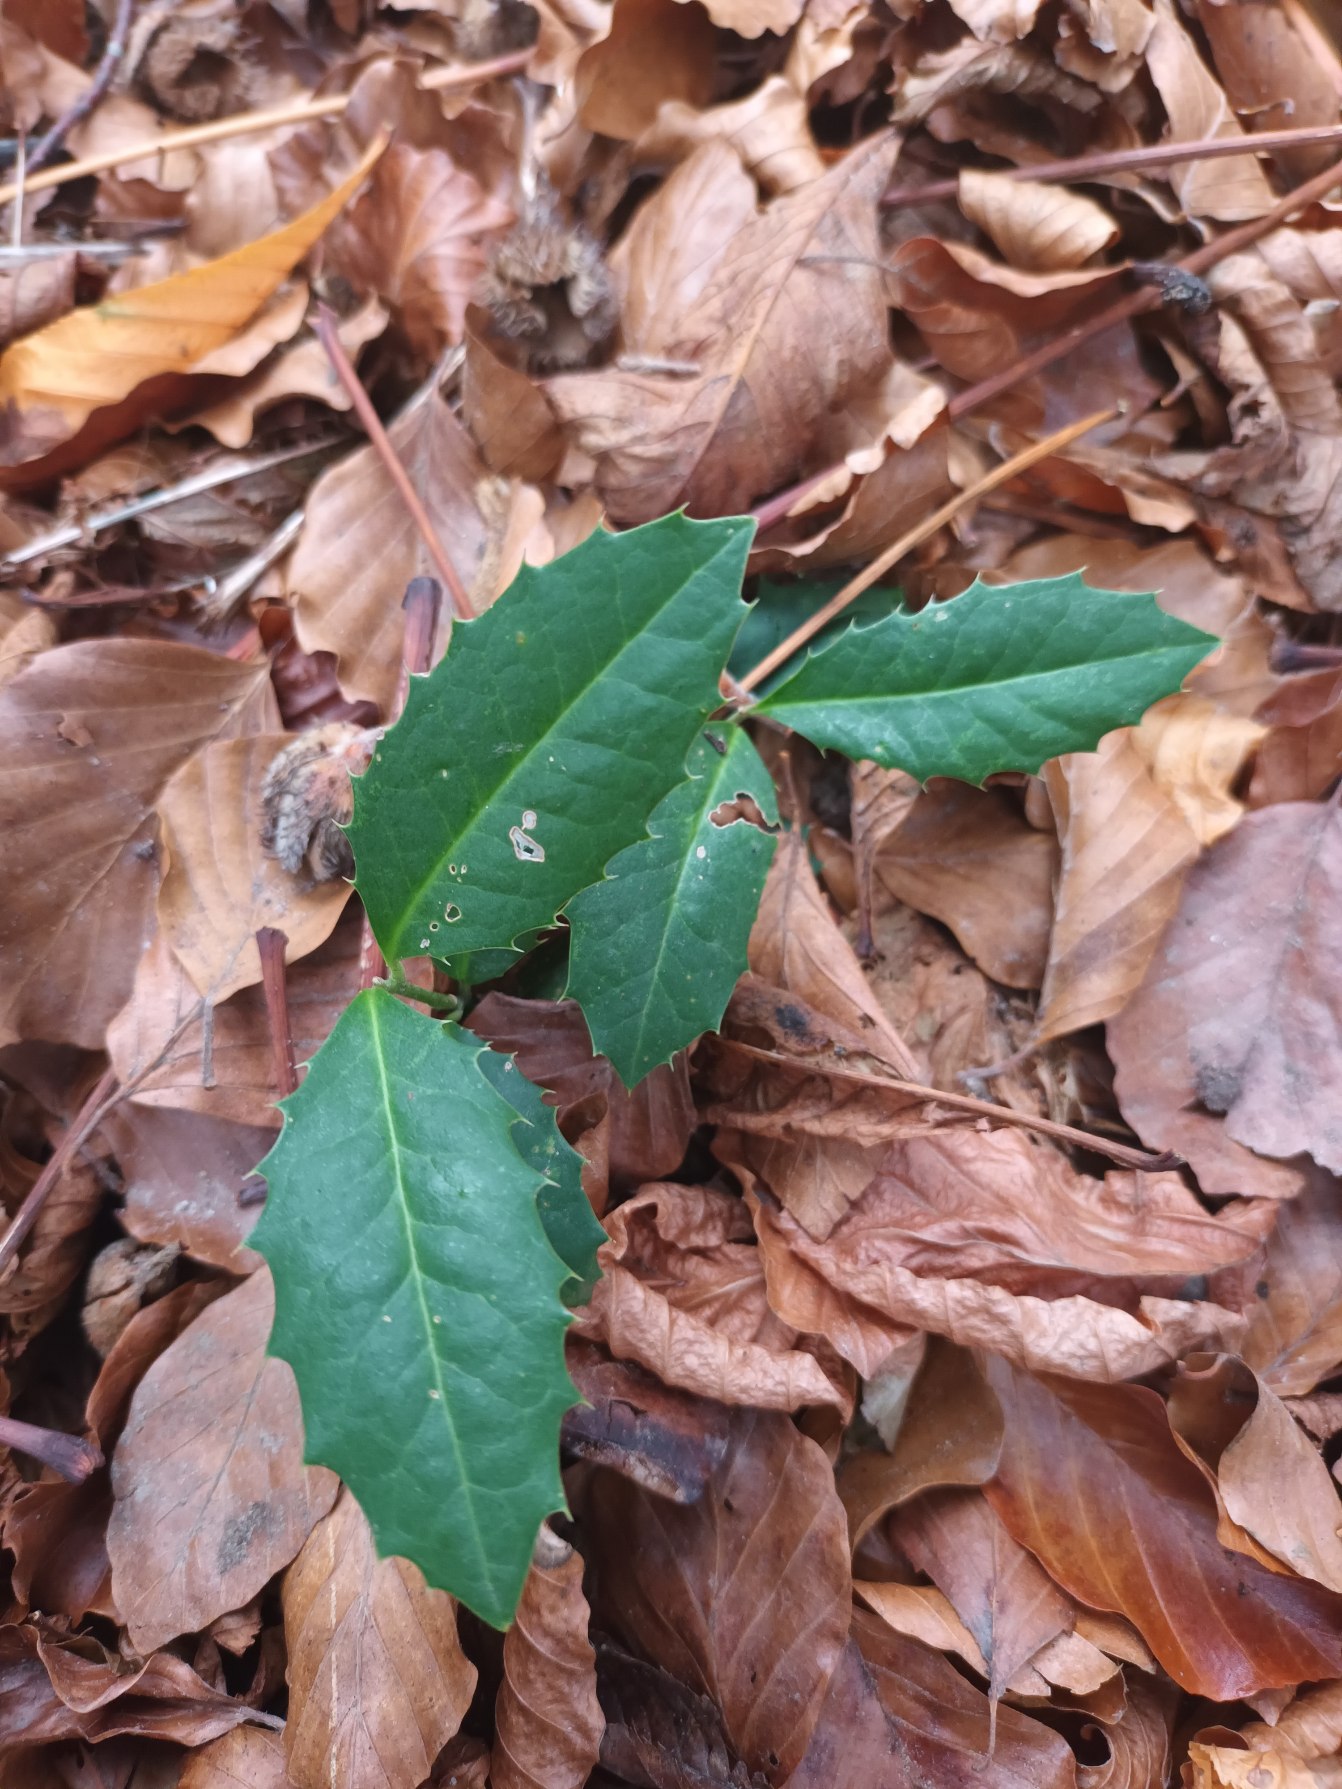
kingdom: Plantae
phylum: Tracheophyta
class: Magnoliopsida
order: Aquifoliales
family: Aquifoliaceae
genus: Ilex
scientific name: Ilex altaclerensis
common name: Storbladet kristtorn
